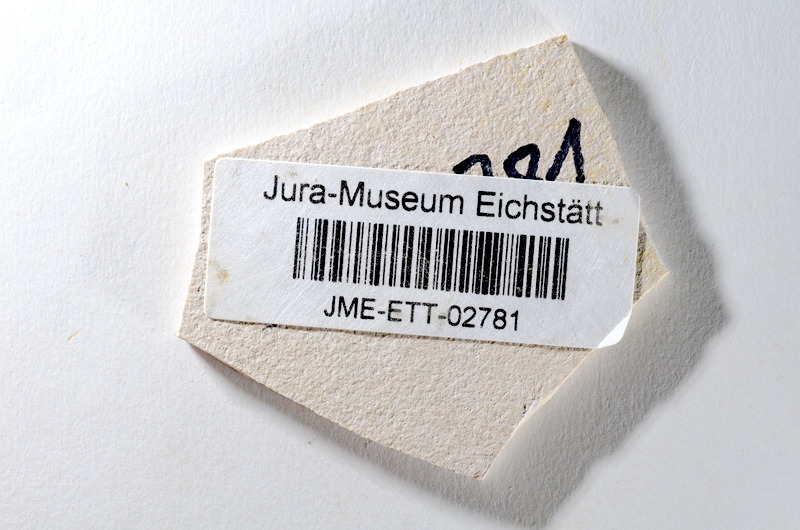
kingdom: Animalia
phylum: Chordata
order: Salmoniformes
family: Orthogonikleithridae
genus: Orthogonikleithrus
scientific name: Orthogonikleithrus hoelli
